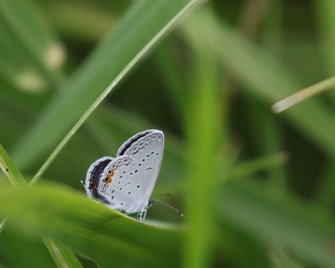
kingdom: Animalia
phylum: Arthropoda
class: Insecta
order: Lepidoptera
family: Lycaenidae
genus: Elkalyce
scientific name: Elkalyce comyntas
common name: Eastern Tailed-Blue
